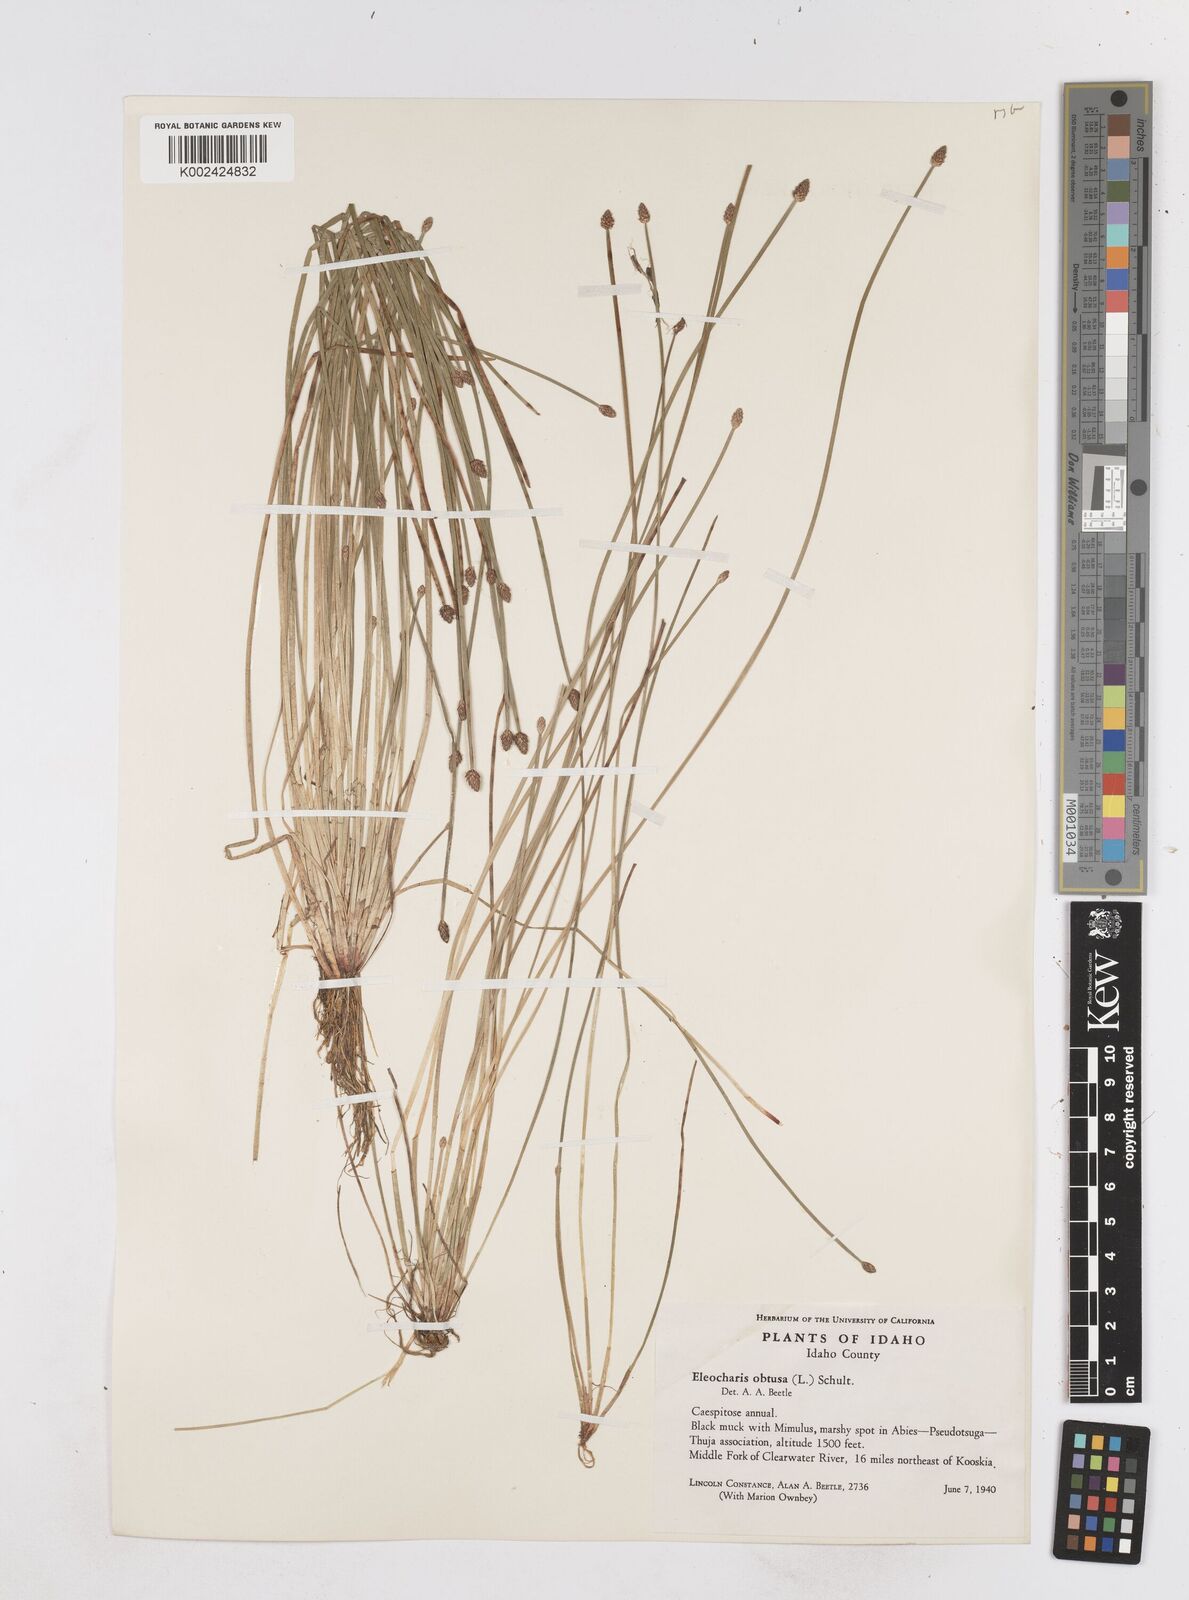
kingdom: Plantae
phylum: Tracheophyta
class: Liliopsida
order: Poales
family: Cyperaceae
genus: Eleocharis
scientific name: Eleocharis obtusa
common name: Blunt spikerush
